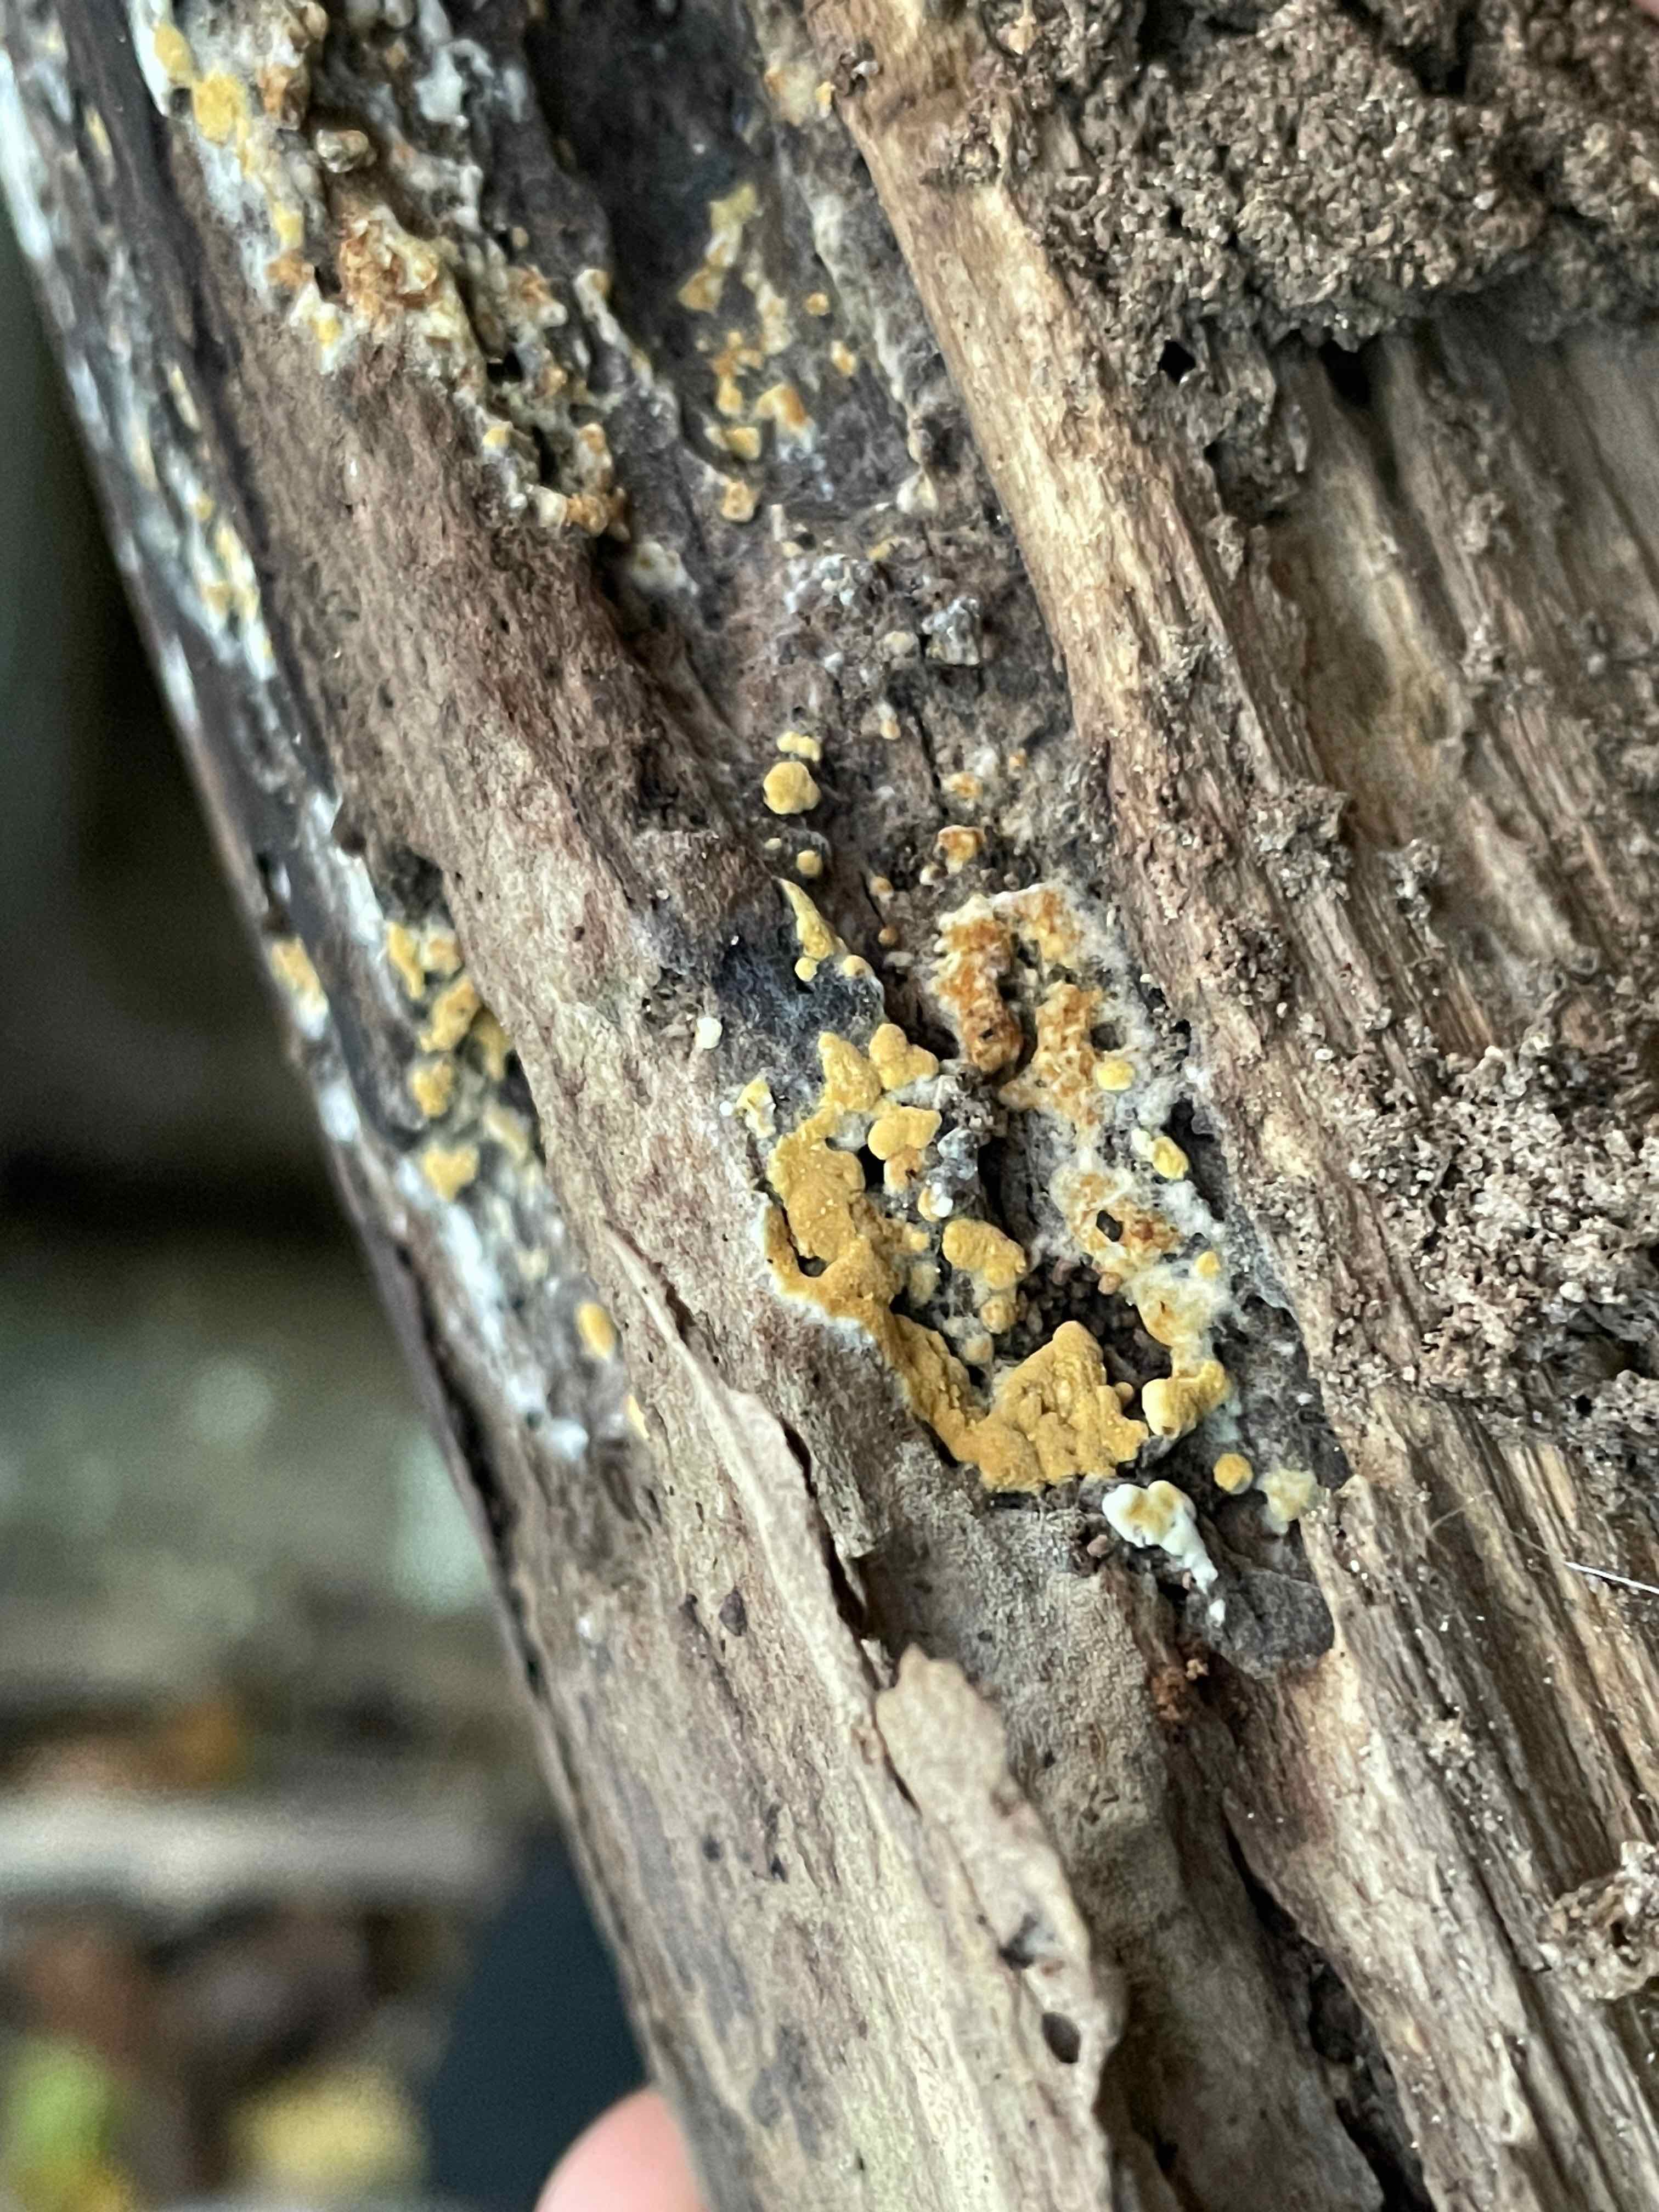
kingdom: Fungi
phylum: Basidiomycota
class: Agaricomycetes
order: Cantharellales
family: Botryobasidiaceae
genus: Botryobasidium
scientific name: Botryobasidium aureum
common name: gylden spindhinde
